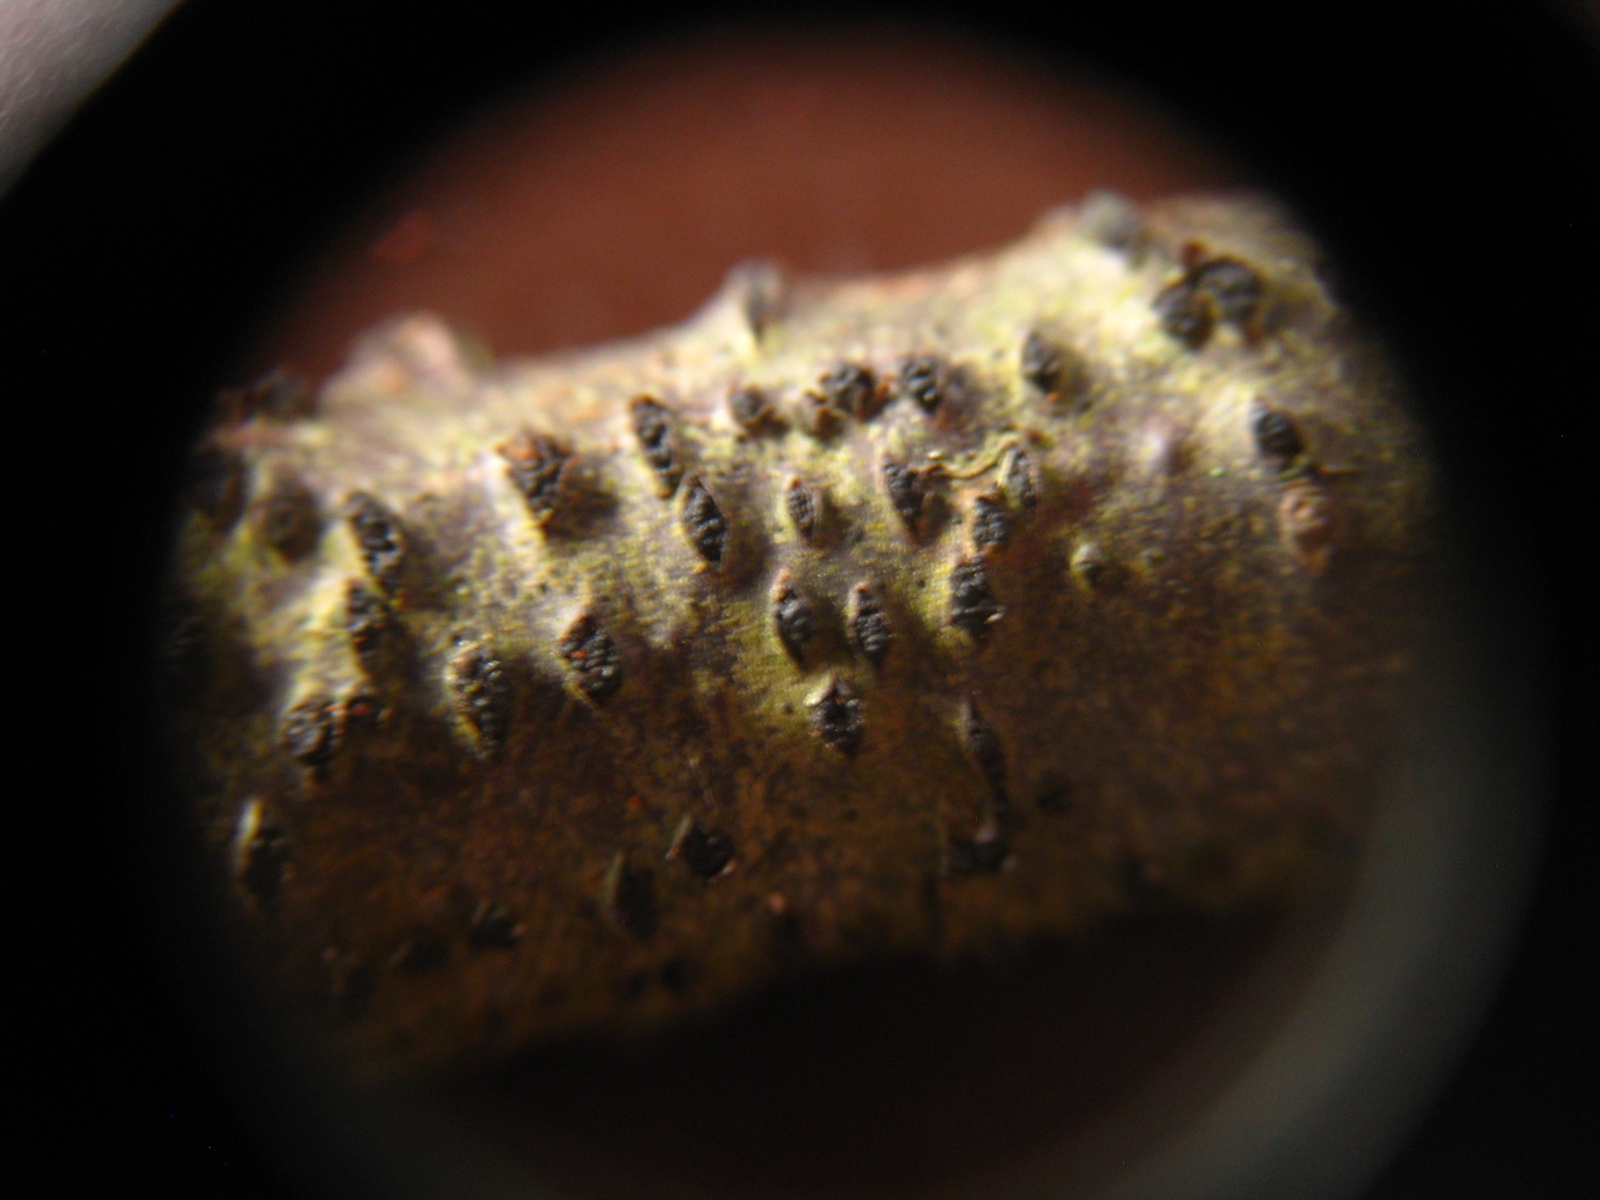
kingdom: Fungi
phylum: Ascomycota
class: Sordariomycetes
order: Diaporthales
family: Diaporthaceae
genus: Diaporthe
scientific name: Diaporthe strumella
